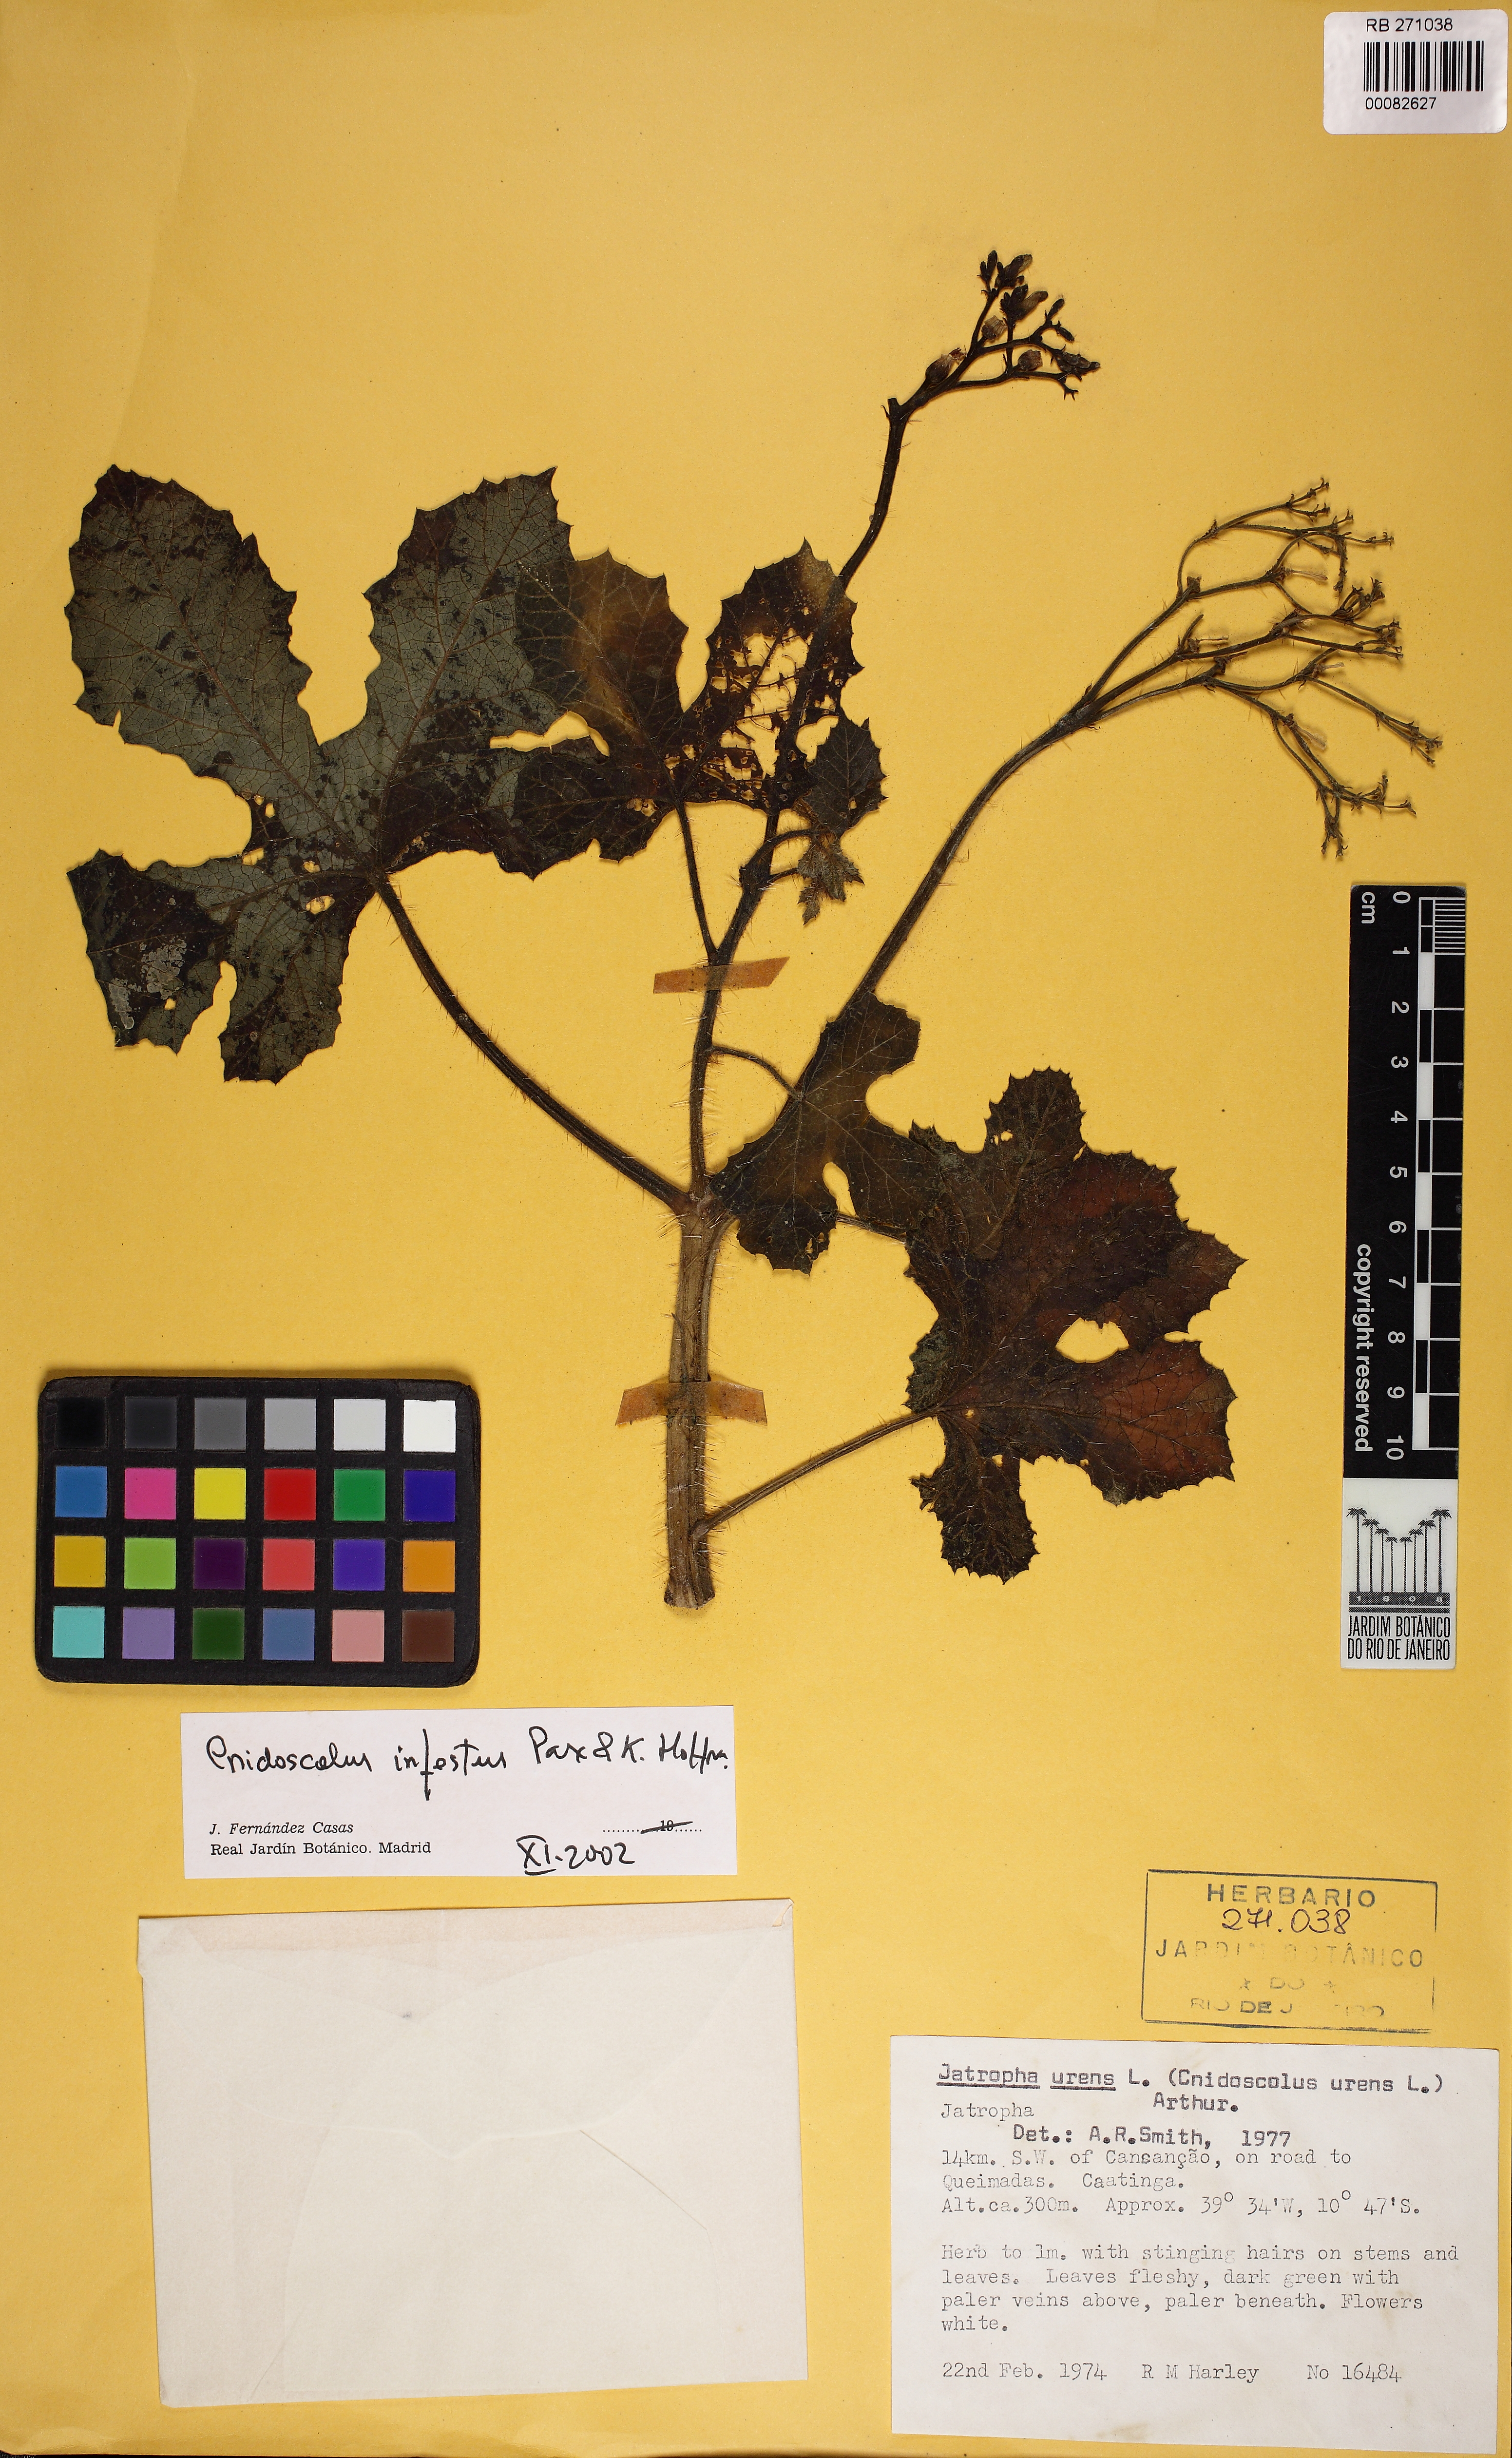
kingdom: Plantae
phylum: Tracheophyta
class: Magnoliopsida
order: Malpighiales
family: Euphorbiaceae
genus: Cnidoscolus
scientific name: Cnidoscolus infestus
